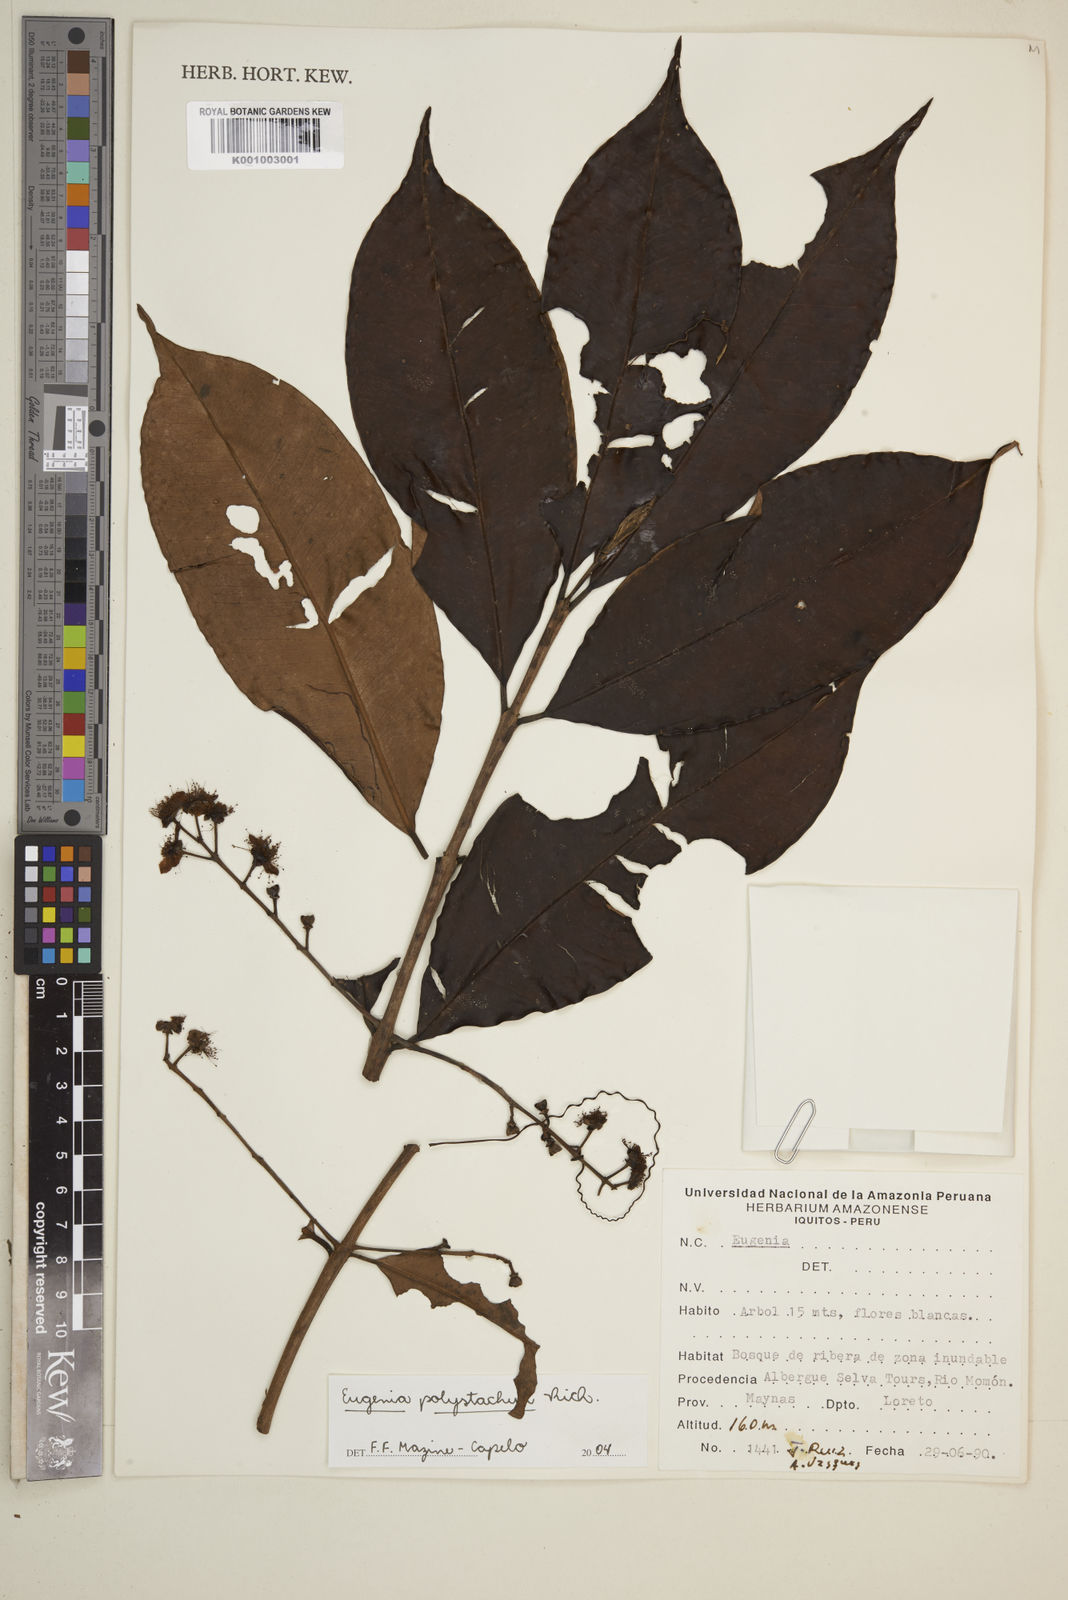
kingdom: Plantae
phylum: Tracheophyta
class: Magnoliopsida
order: Myrtales
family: Myrtaceae
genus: Eugenia
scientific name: Eugenia polystachya
